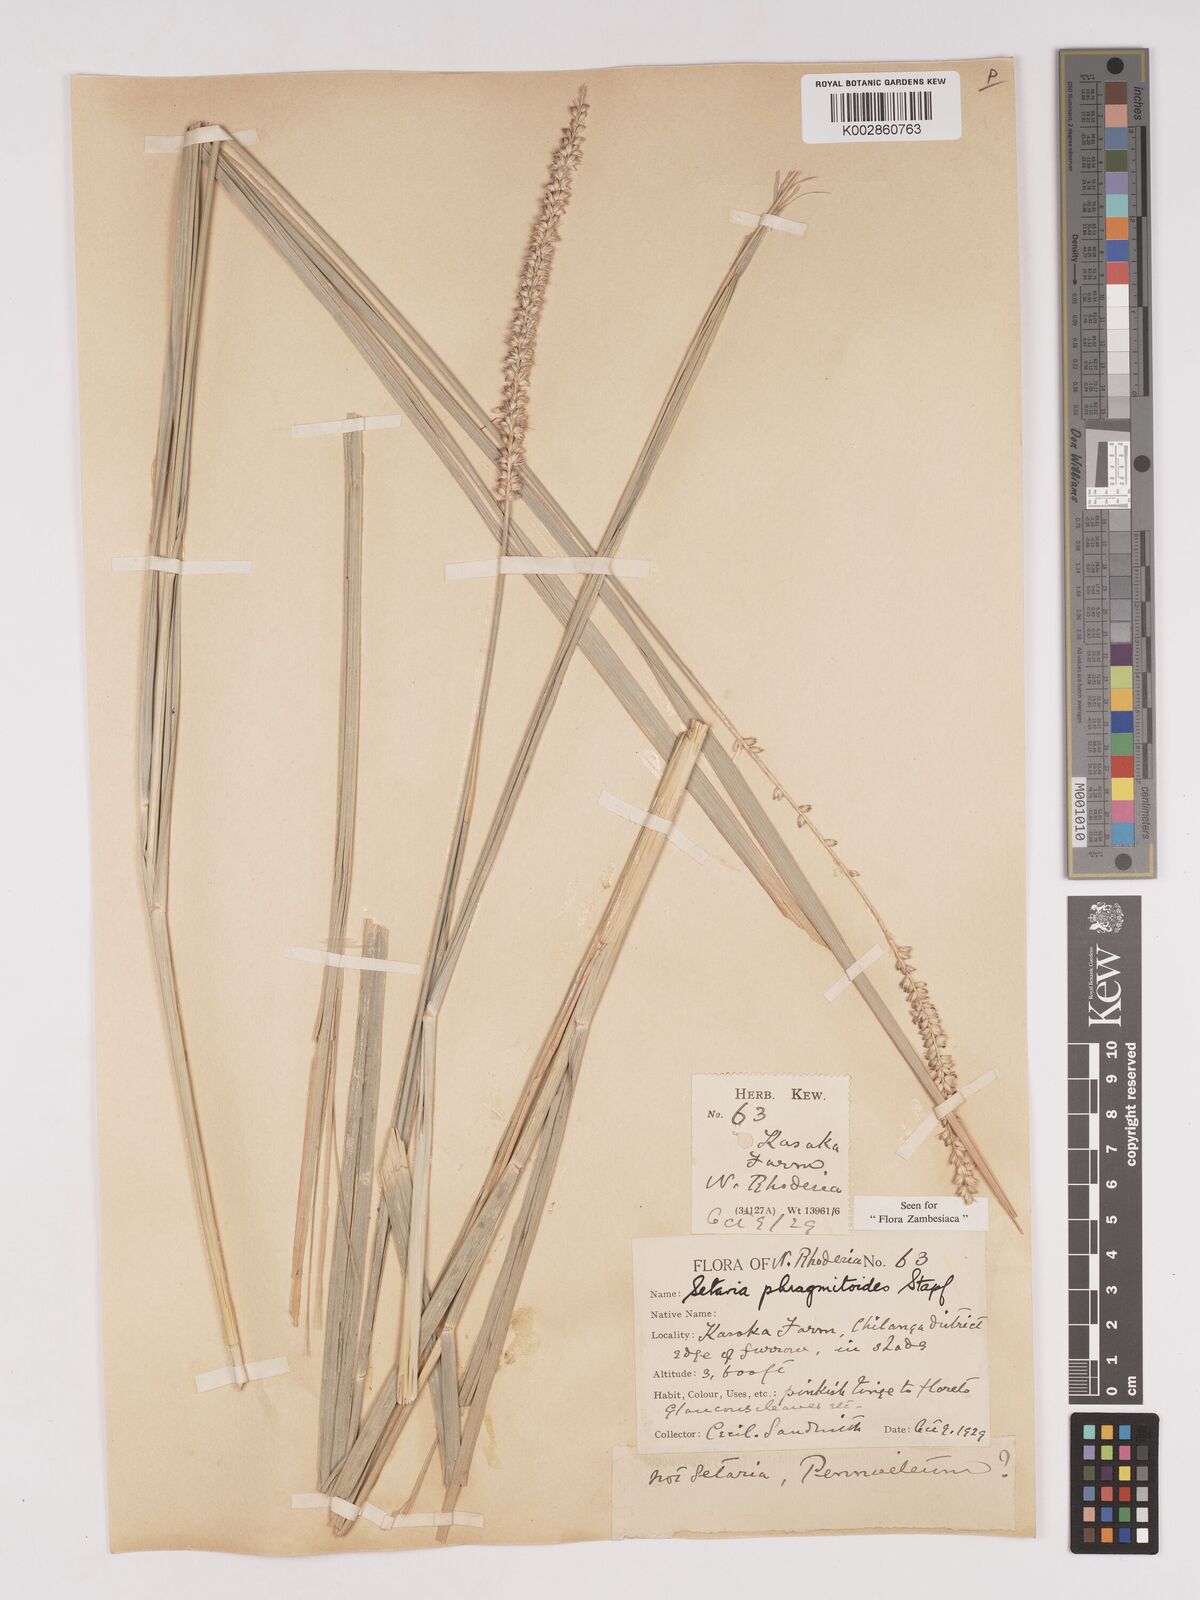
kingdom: Plantae
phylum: Tracheophyta
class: Liliopsida
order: Poales
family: Poaceae
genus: Setaria
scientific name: Setaria incrassata
